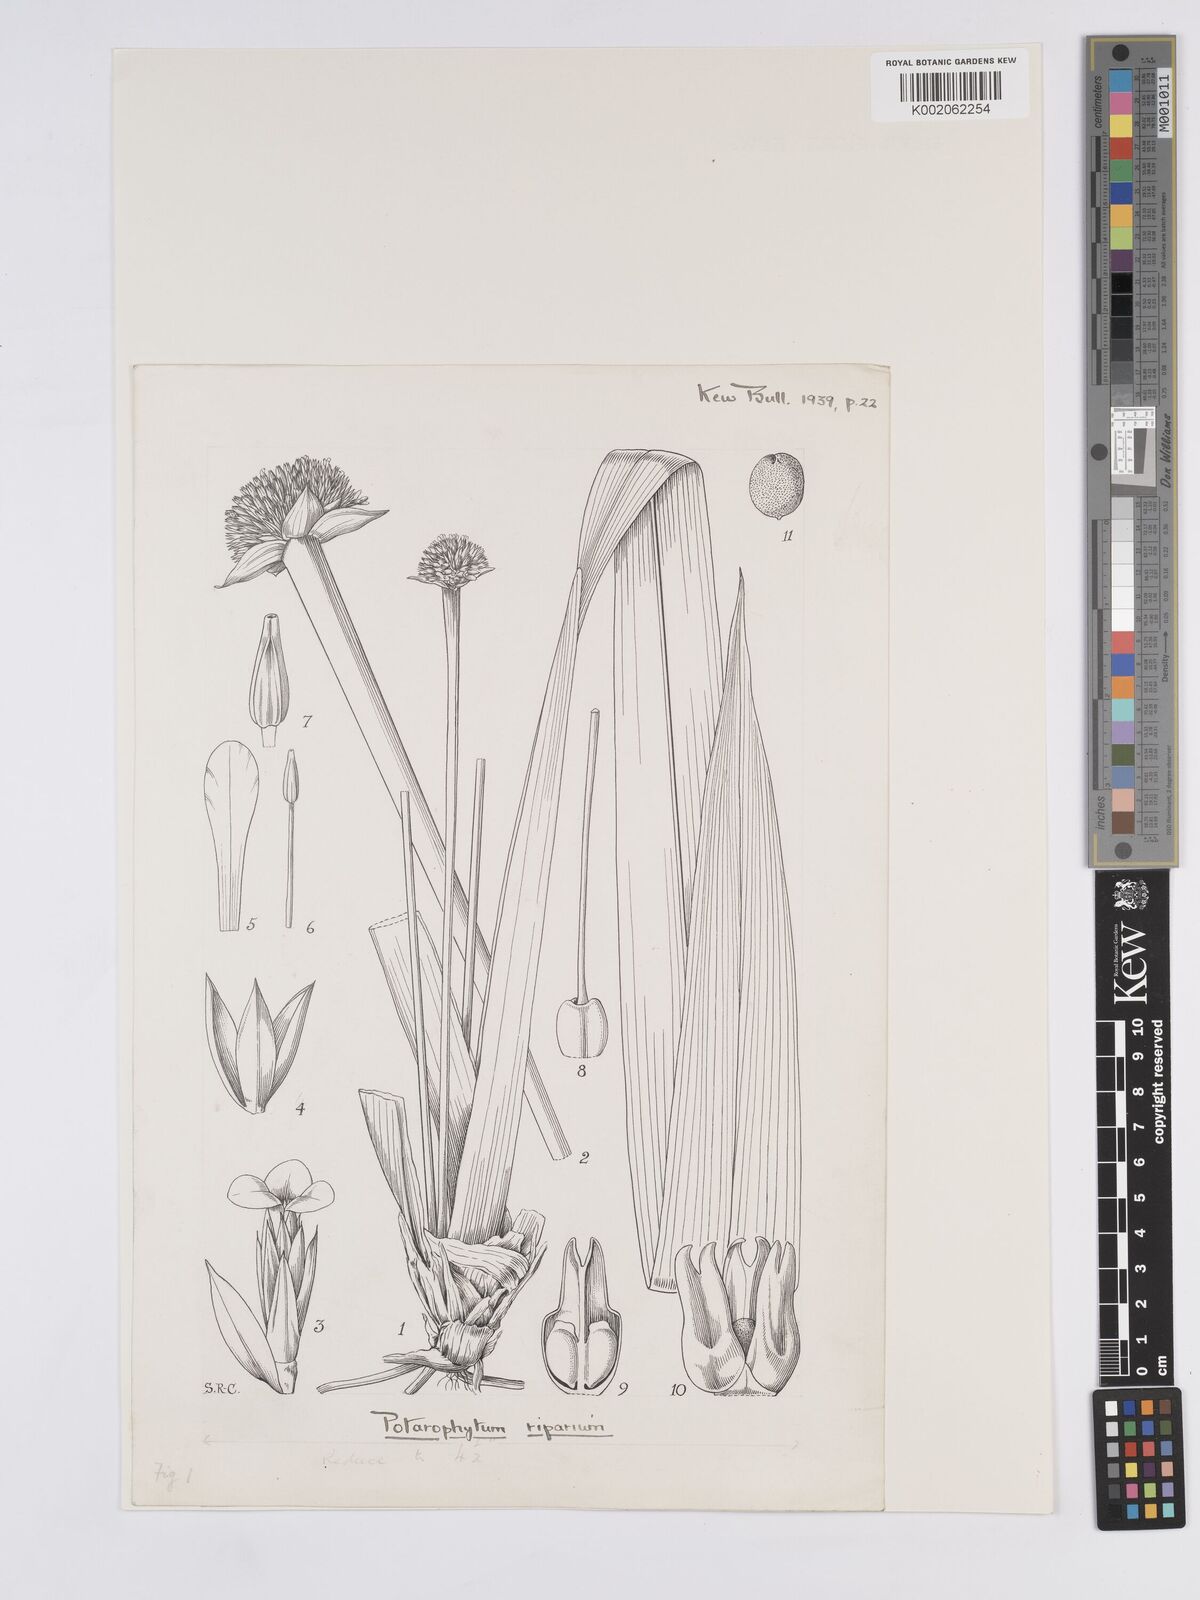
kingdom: Plantae
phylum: Tracheophyta
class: Liliopsida
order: Poales
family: Rapateaceae
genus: Potarophytum
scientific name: Potarophytum
